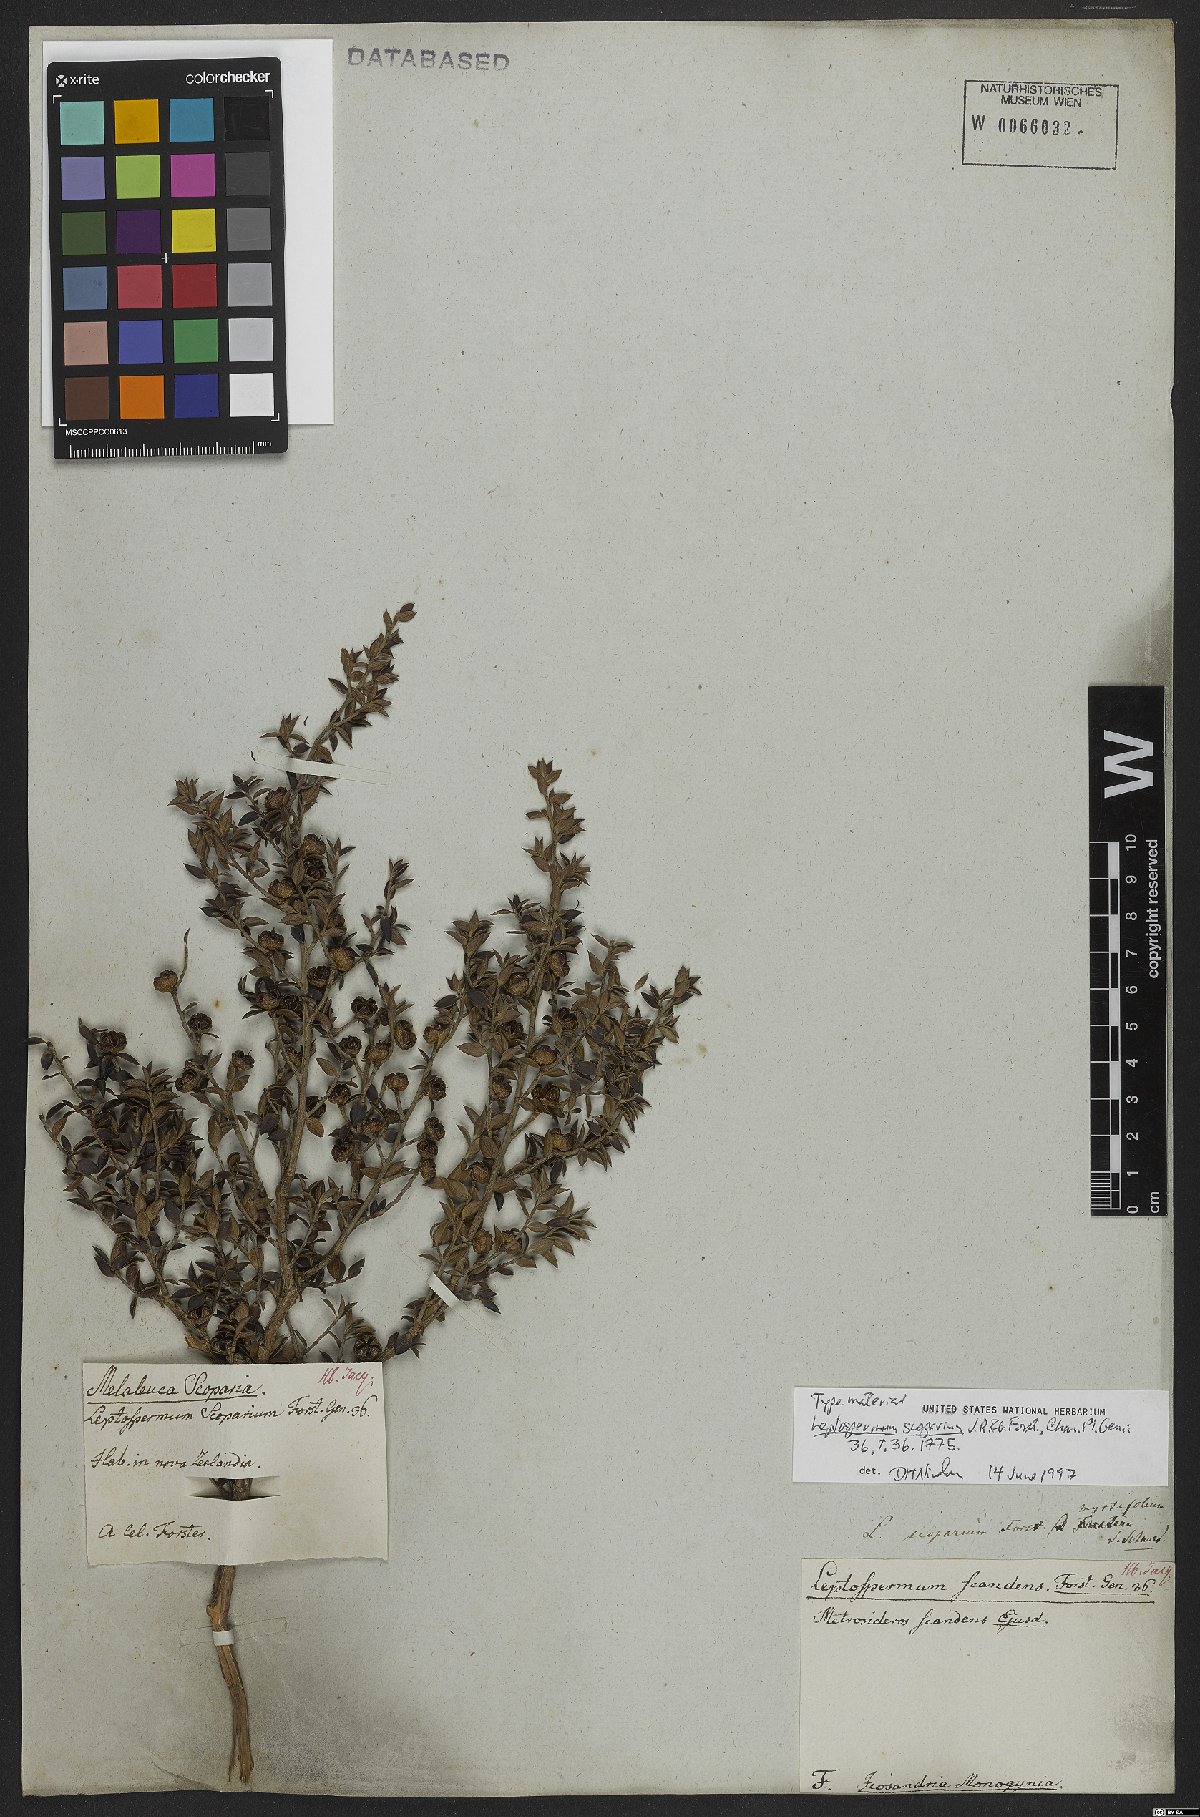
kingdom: Plantae
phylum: Tracheophyta
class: Magnoliopsida
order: Myrtales
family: Myrtaceae
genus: Leptospermum
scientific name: Leptospermum scoparium
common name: Broom tea-tree
